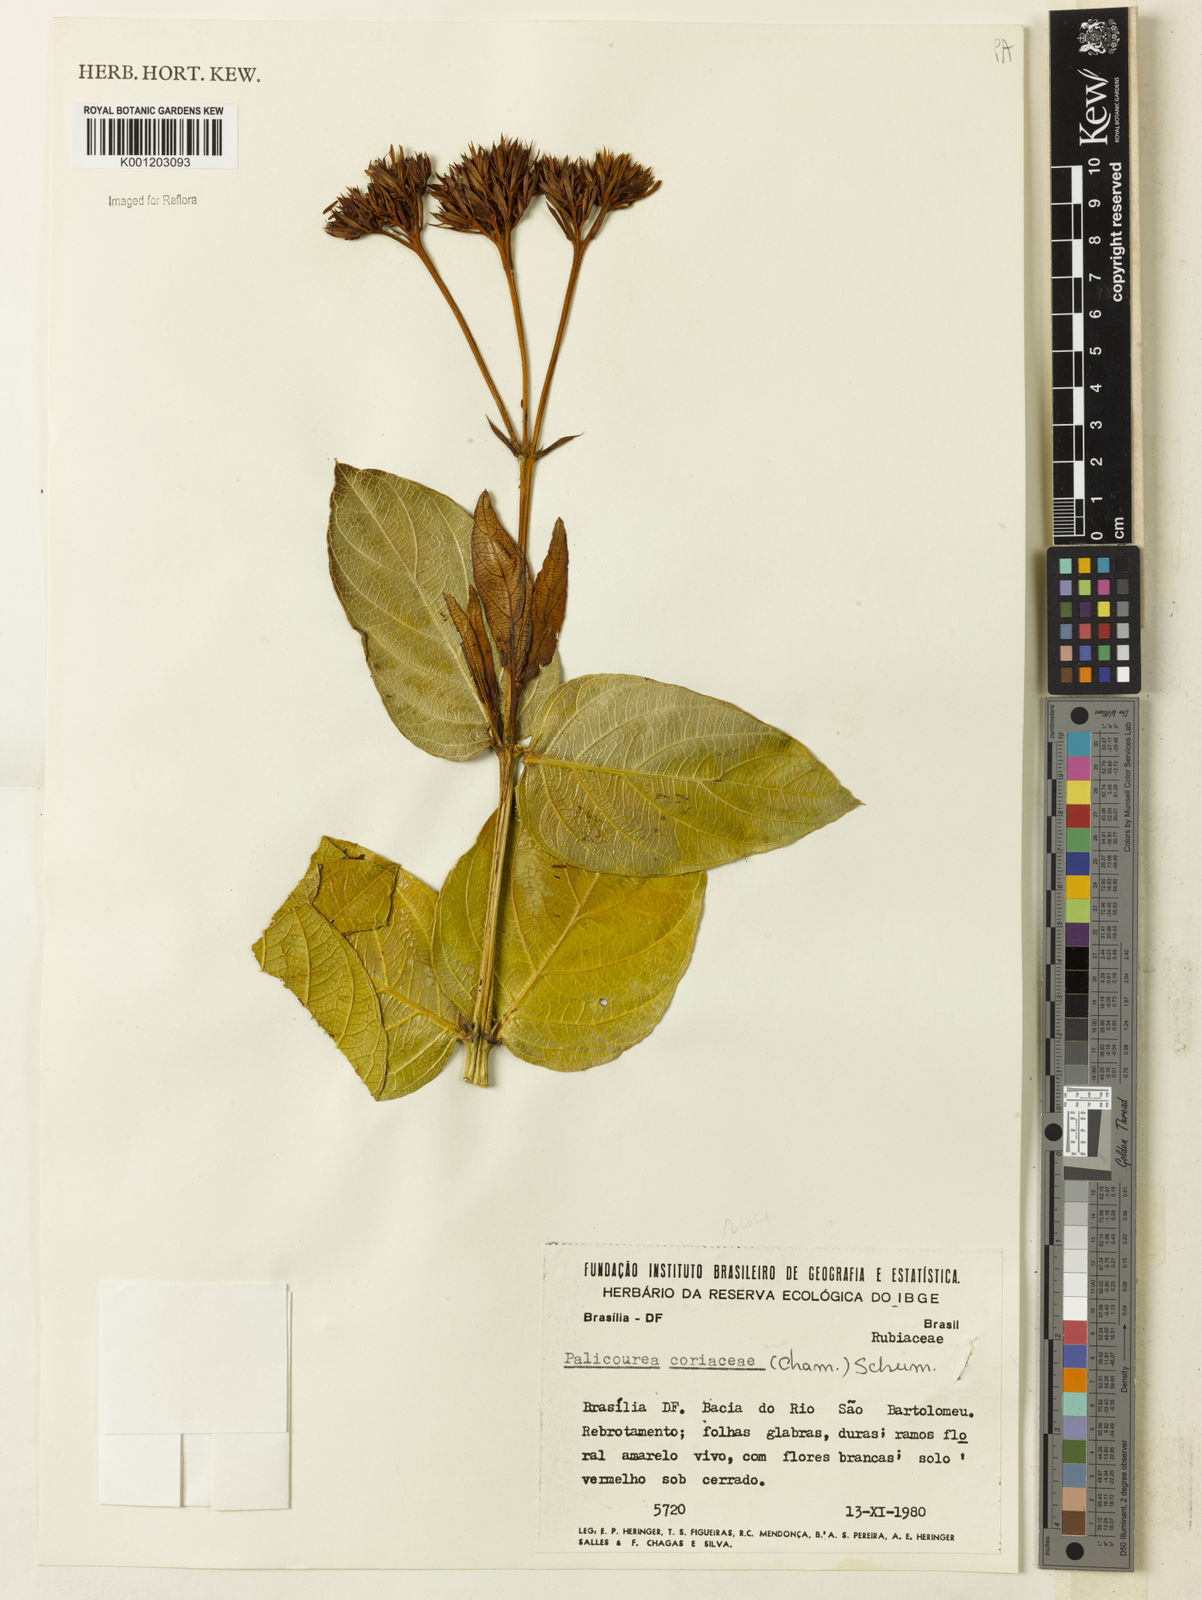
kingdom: Plantae
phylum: Tracheophyta
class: Magnoliopsida
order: Gentianales
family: Rubiaceae
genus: Palicourea
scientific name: Palicourea coriacea
